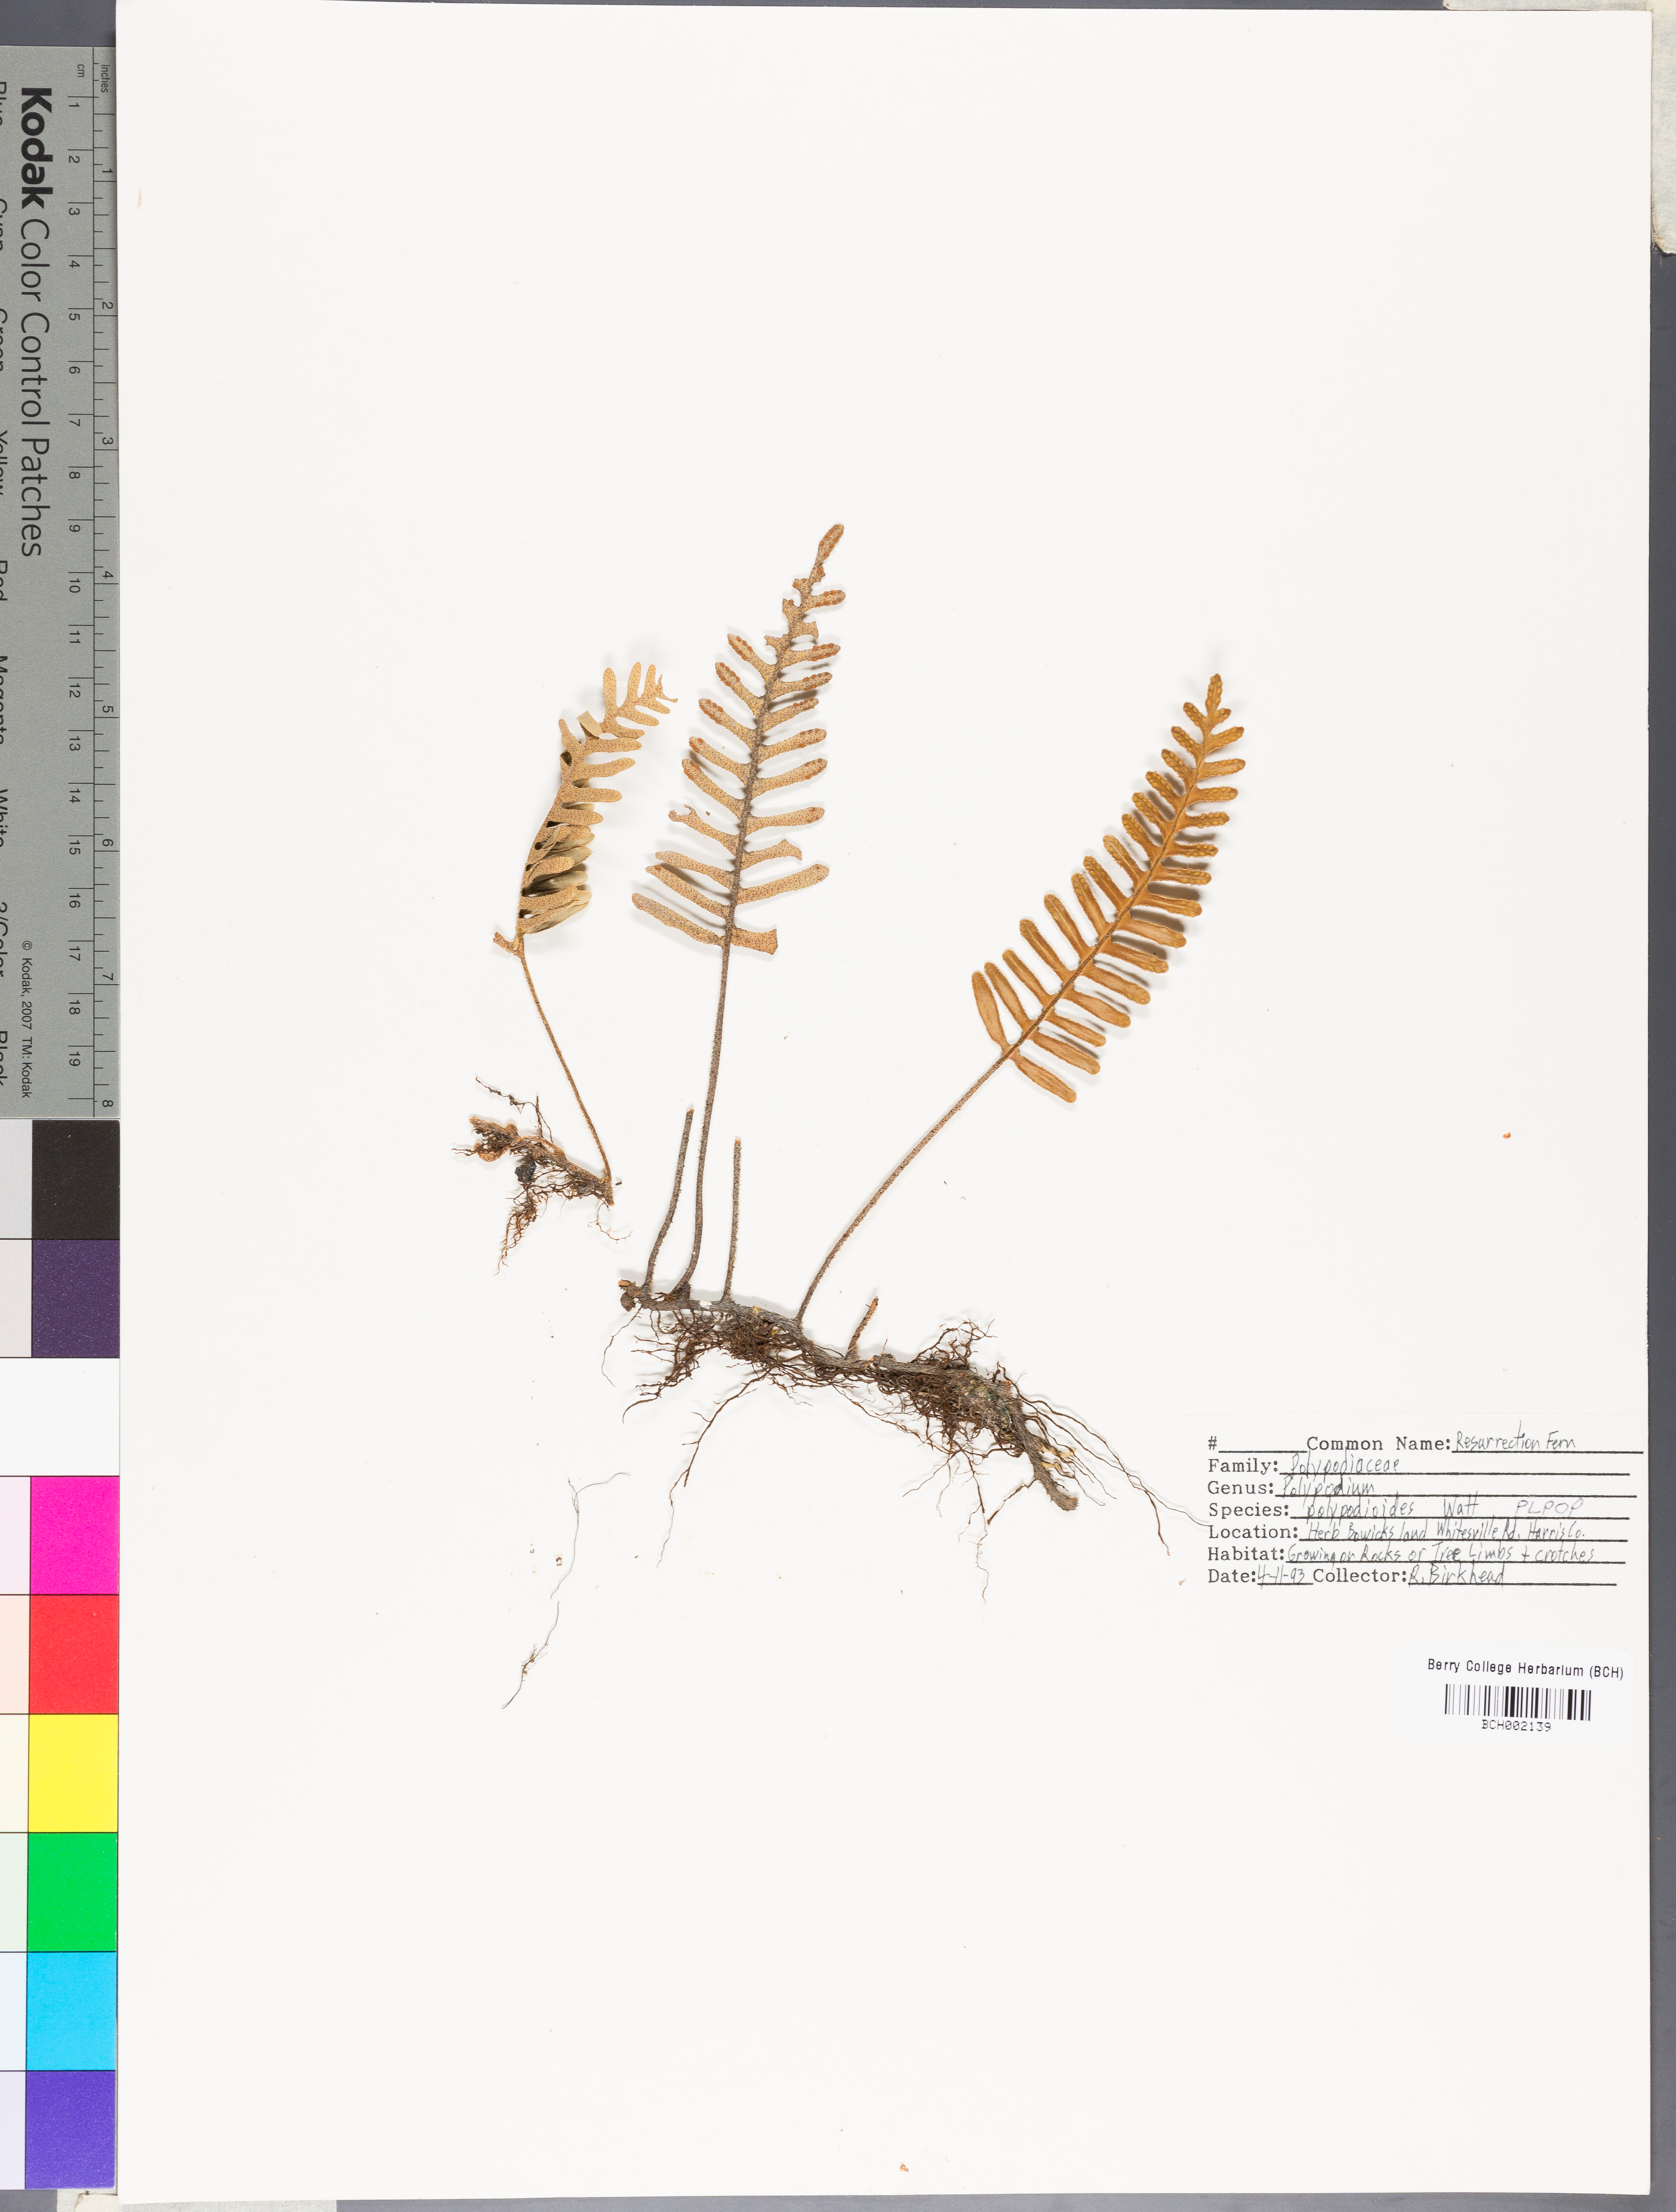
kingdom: Plantae
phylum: Tracheophyta
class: Polypodiopsida
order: Polypodiales
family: Polypodiaceae
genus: Pleopeltis
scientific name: Pleopeltis polypodioides
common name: Resurrection fern
